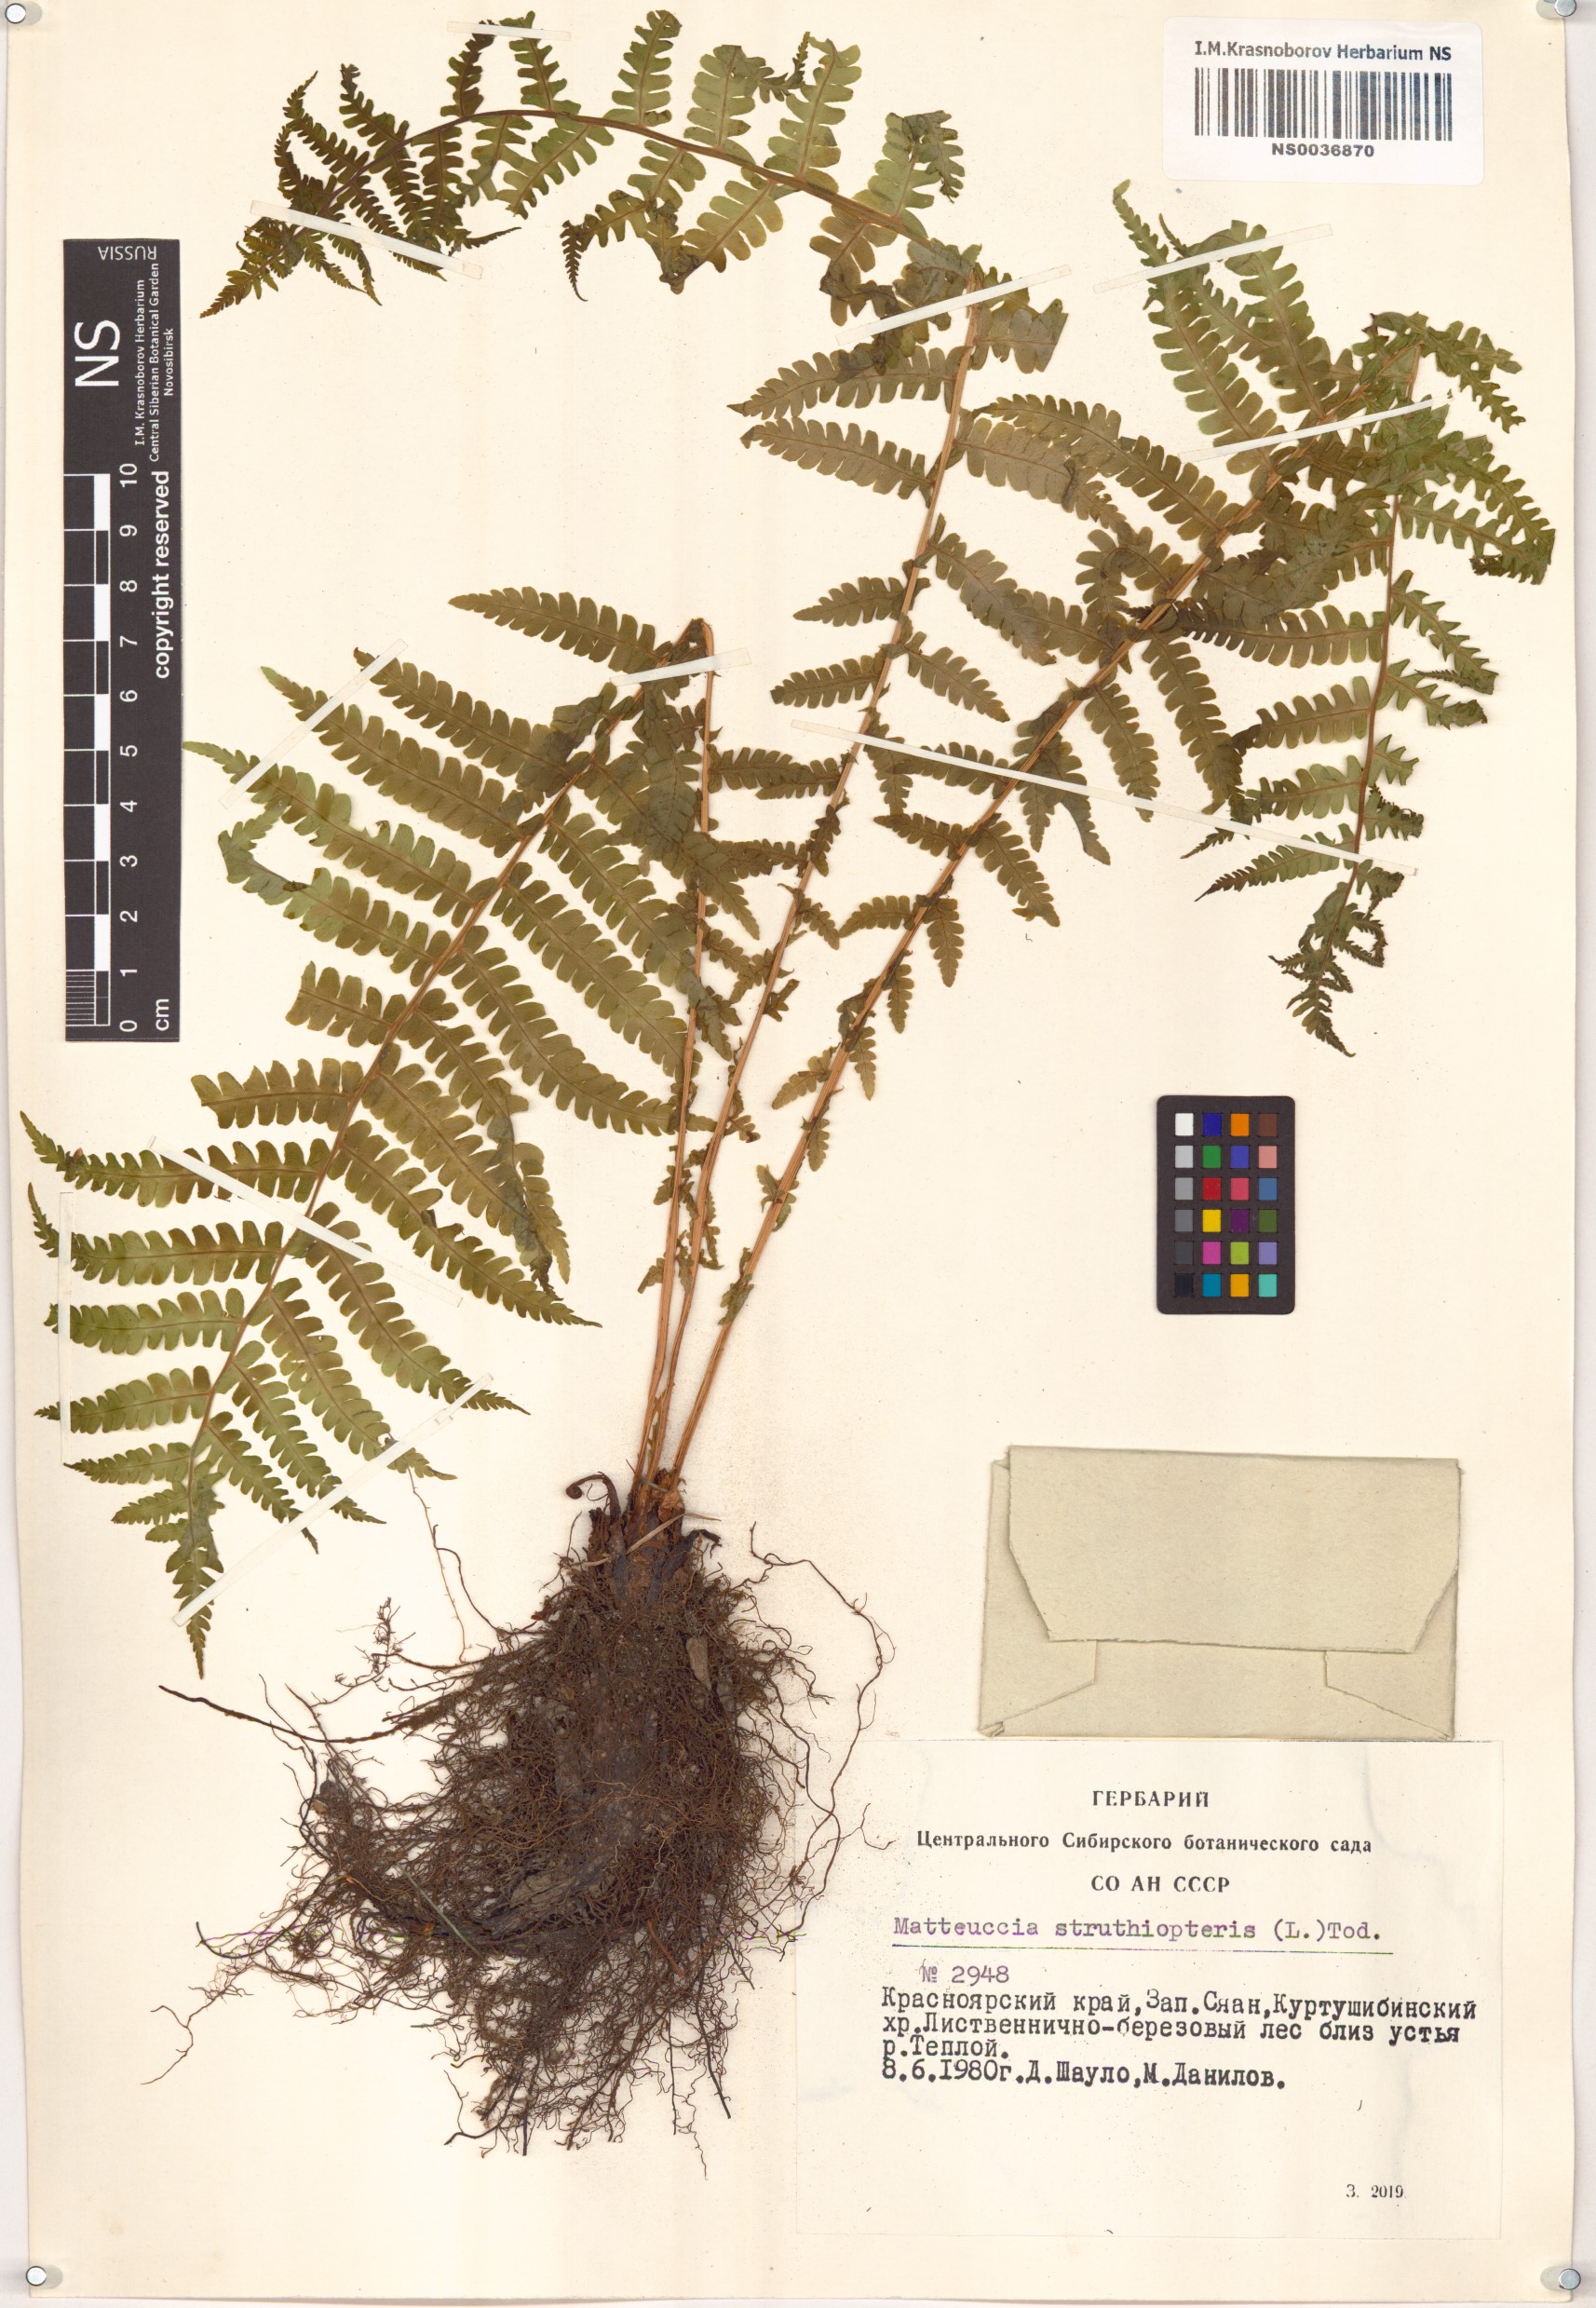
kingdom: Plantae
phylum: Tracheophyta
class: Polypodiopsida
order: Polypodiales
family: Onocleaceae
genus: Matteuccia
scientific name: Matteuccia struthiopteris
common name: Ostrich fern
